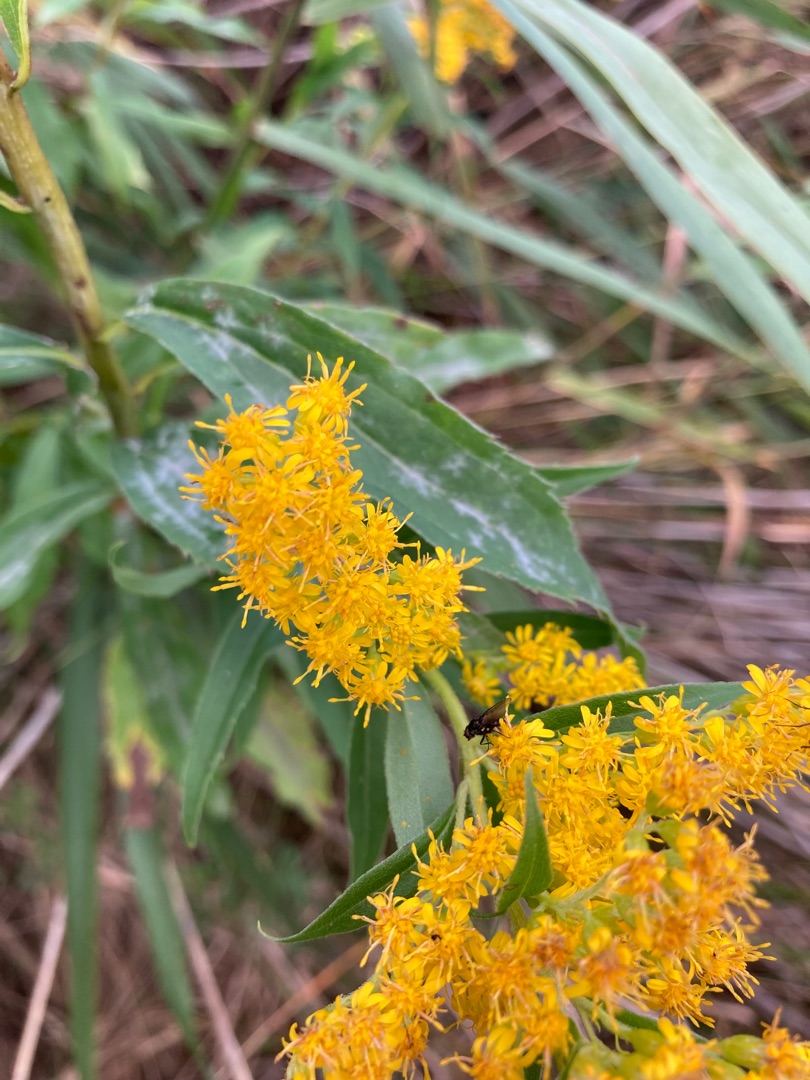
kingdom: Plantae
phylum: Tracheophyta
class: Magnoliopsida
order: Asterales
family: Asteraceae
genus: Solidago
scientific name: Solidago gigantea
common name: Sildig gyldenris
